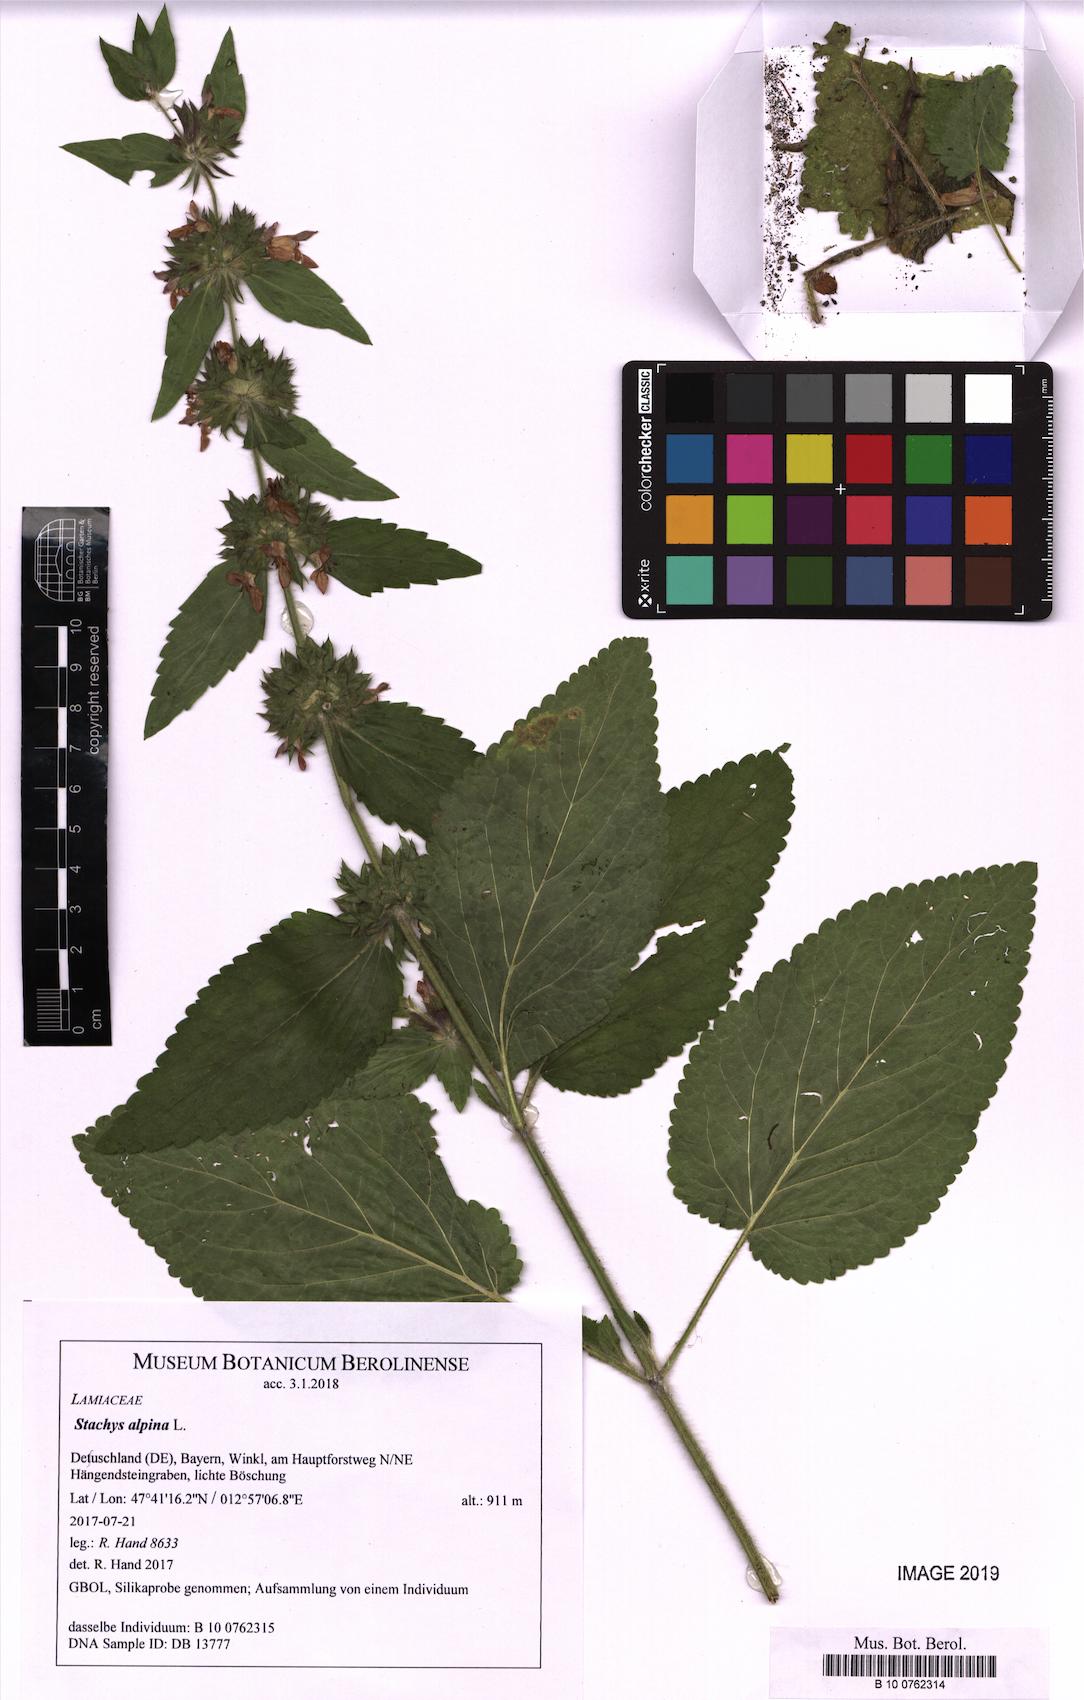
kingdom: Plantae
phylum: Tracheophyta
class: Magnoliopsida
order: Lamiales
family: Lamiaceae
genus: Stachys
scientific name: Stachys alpina
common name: Limestone woundwort
